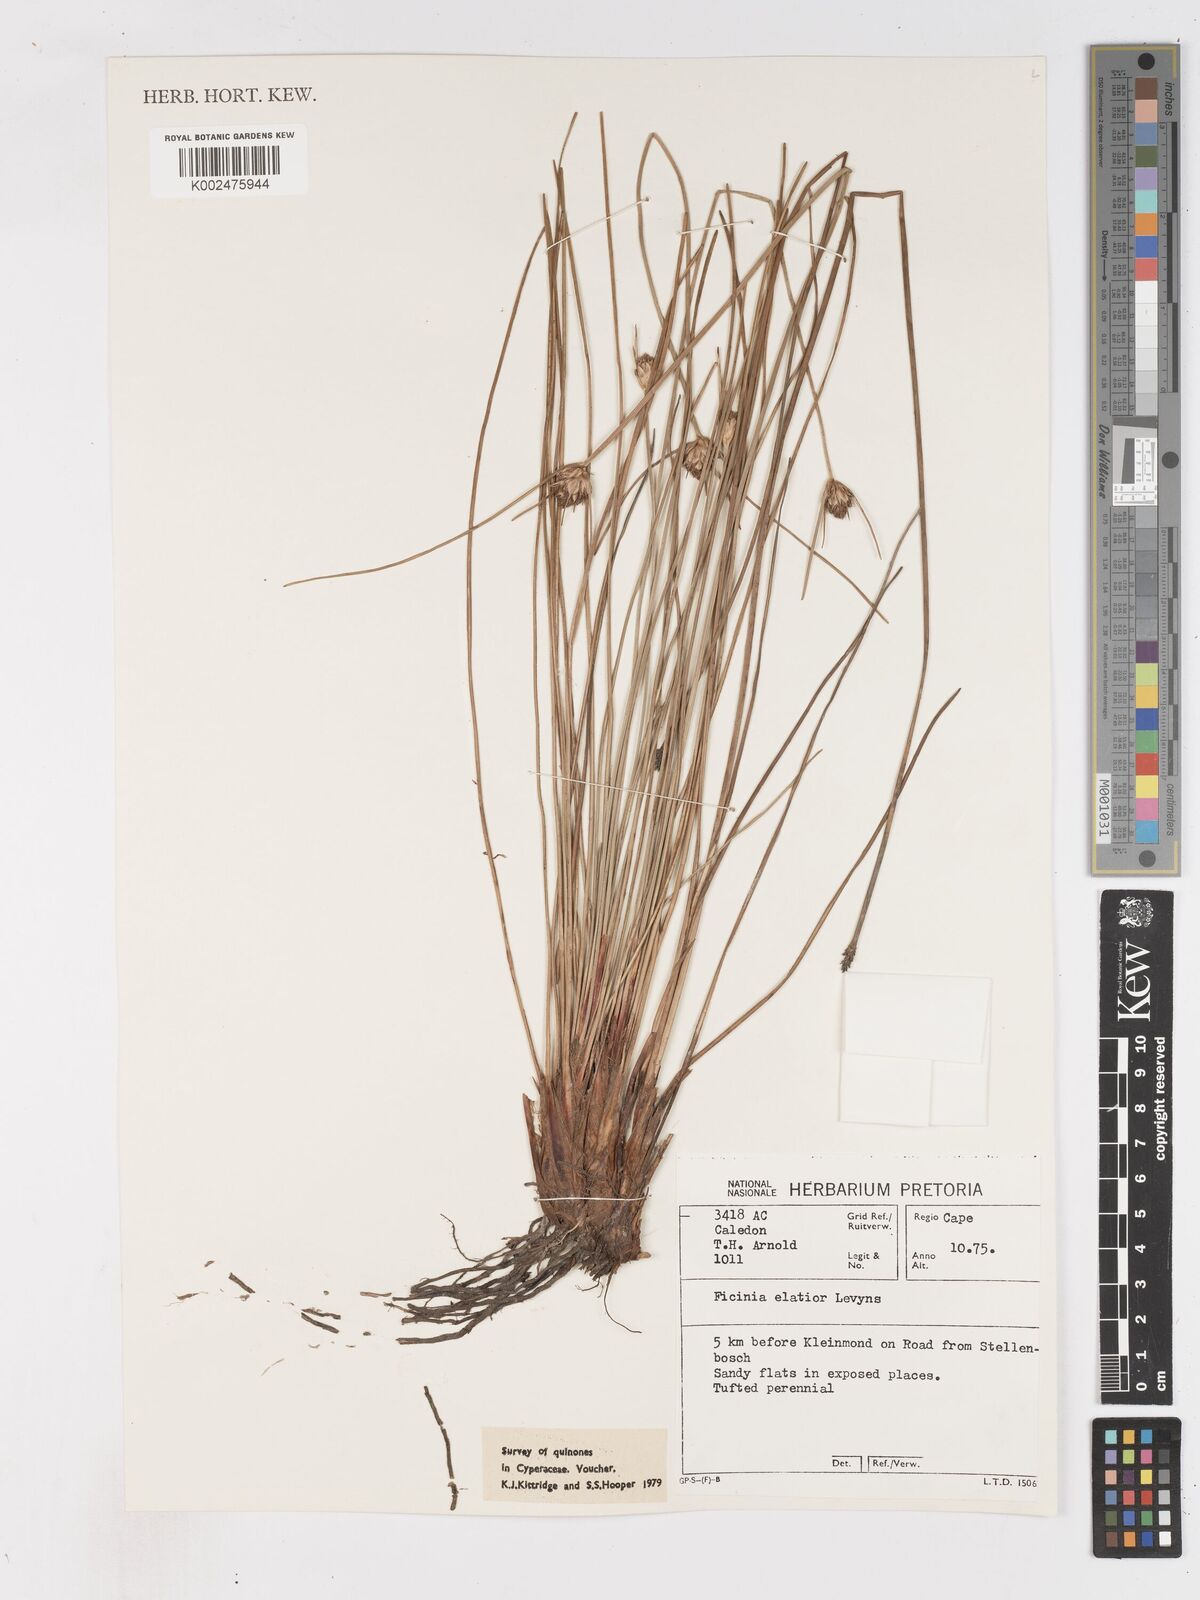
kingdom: Plantae
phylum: Tracheophyta
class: Liliopsida
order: Poales
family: Cyperaceae
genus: Ficinia
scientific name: Ficinia elatior
